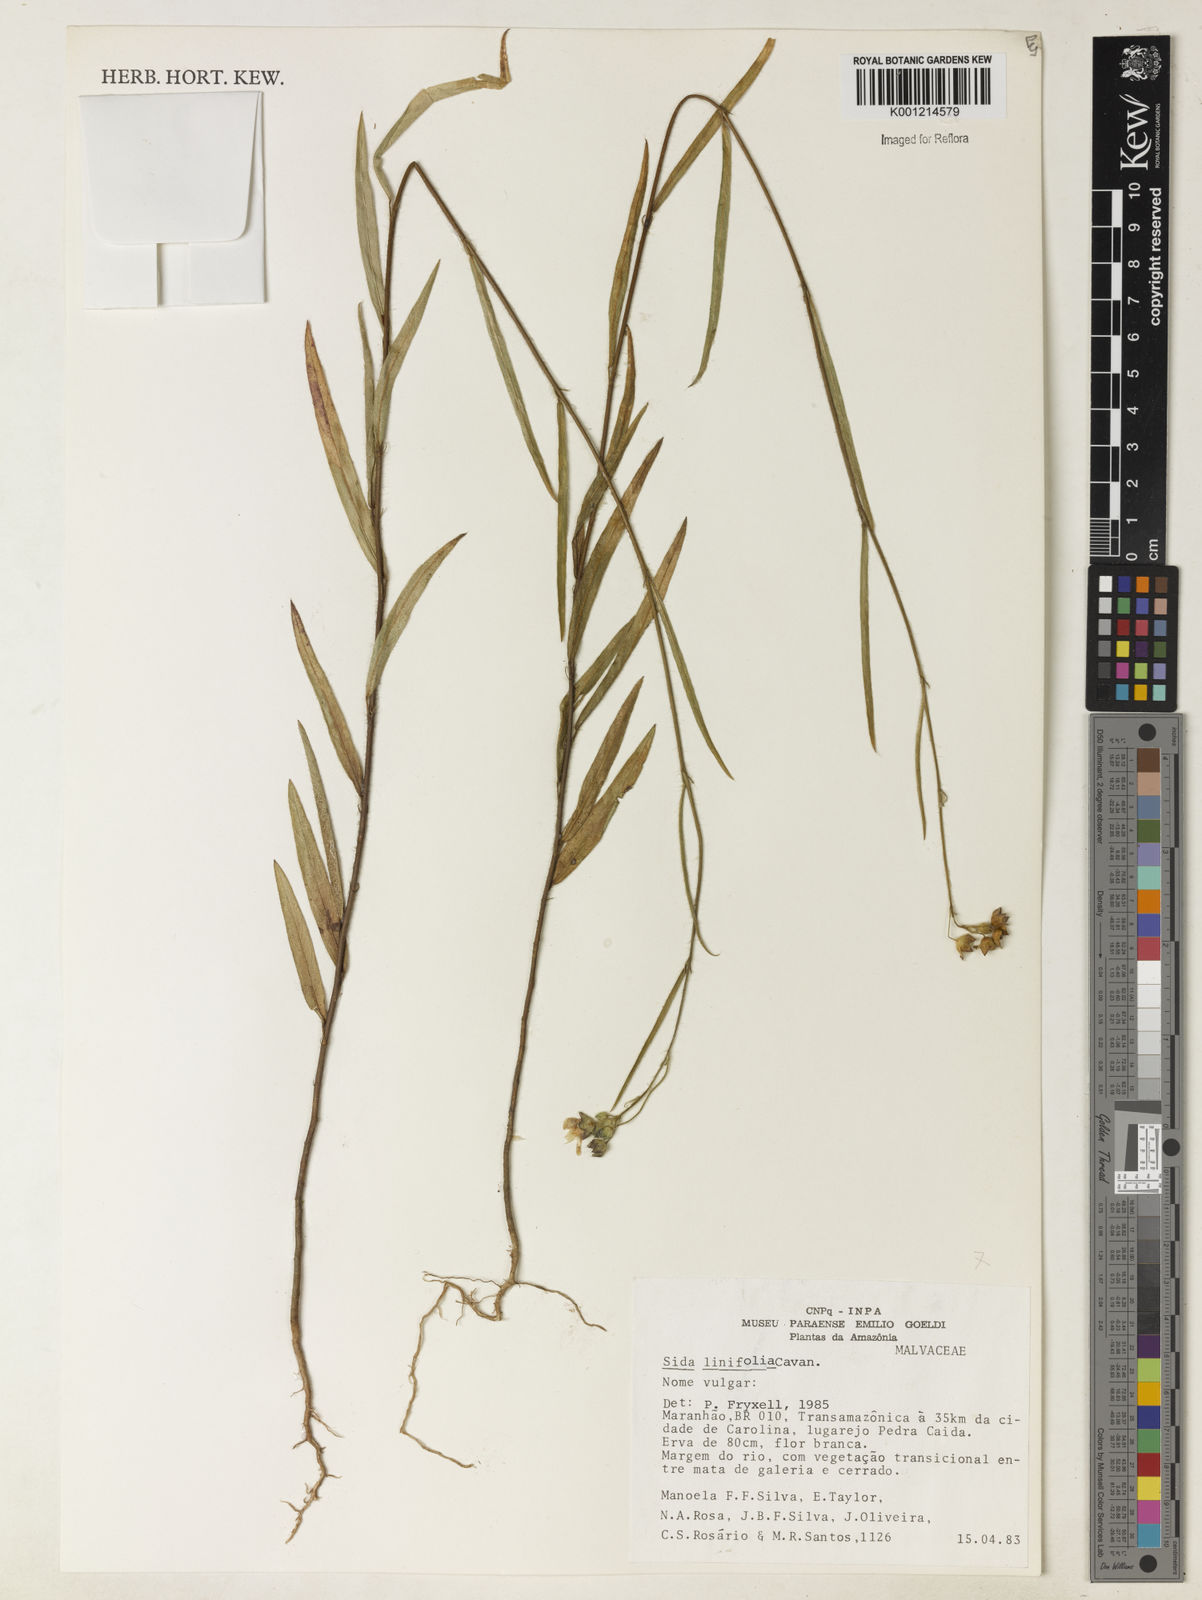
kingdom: Plantae
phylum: Tracheophyta
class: Magnoliopsida
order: Malvales
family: Malvaceae
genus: Sida
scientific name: Sida linifolia
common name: Flaxleaf fanpetals
